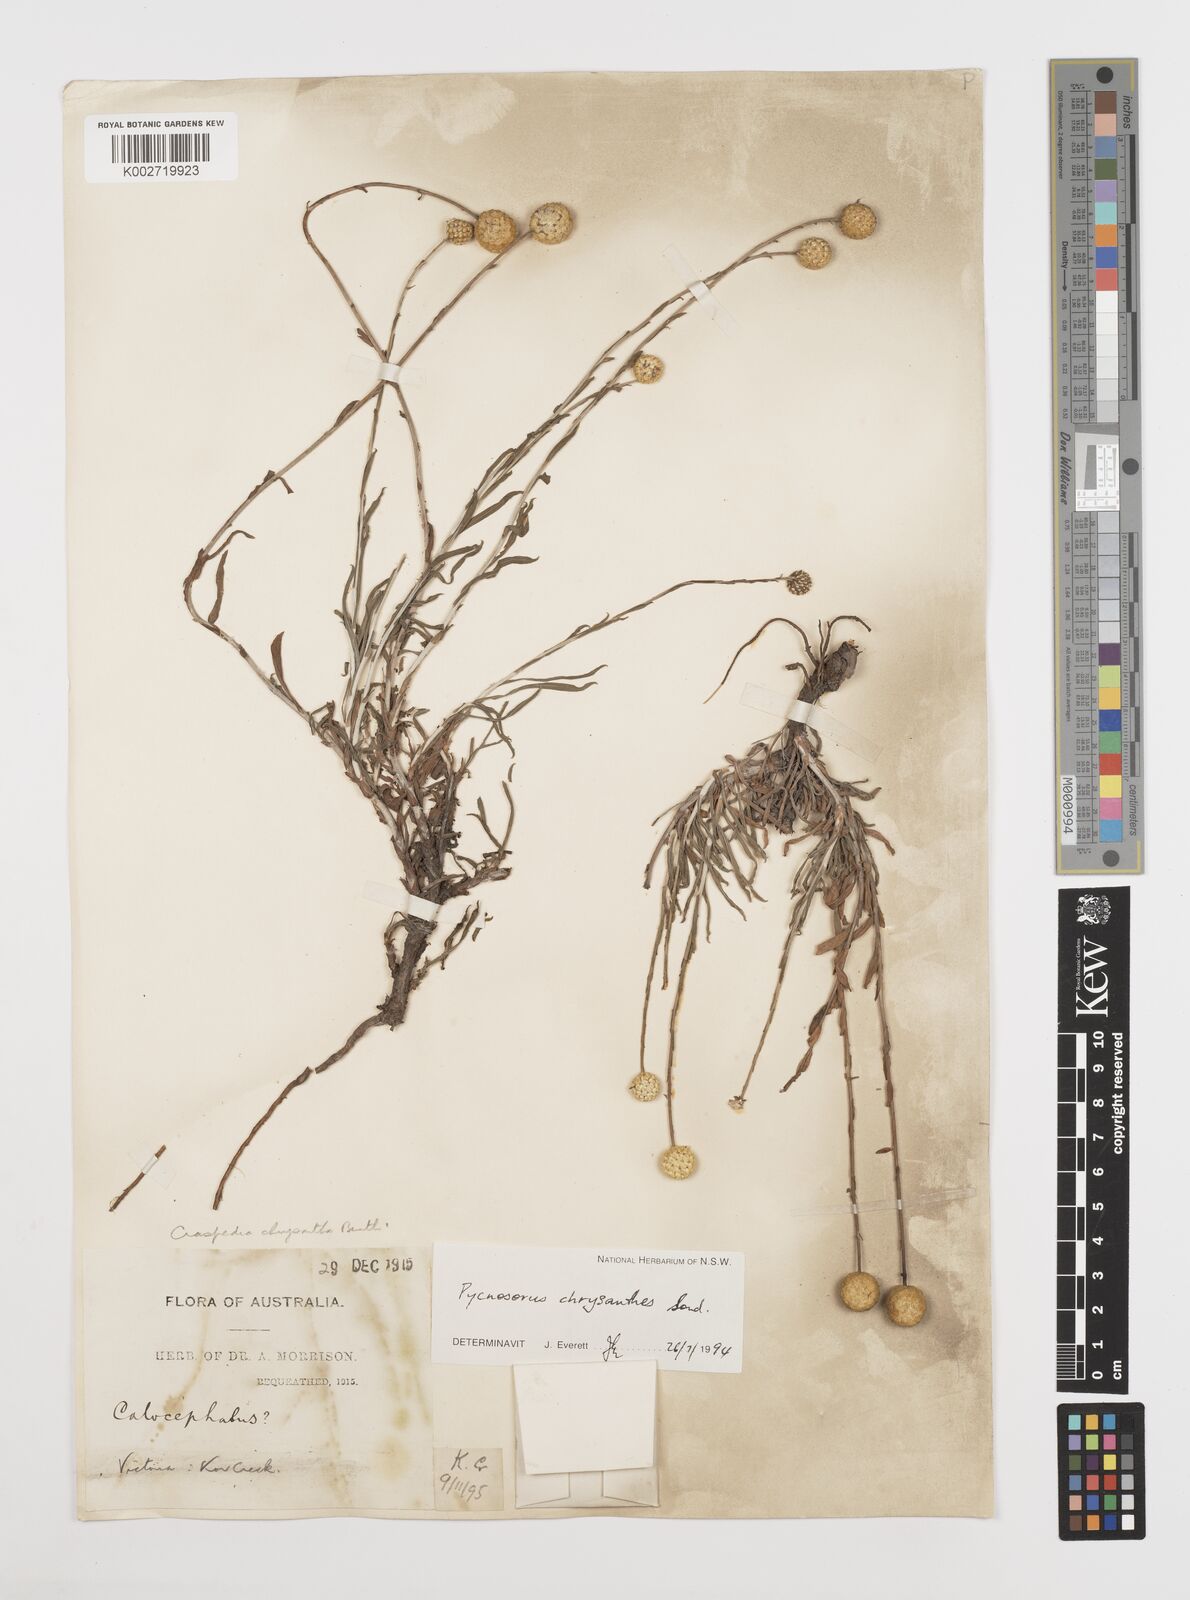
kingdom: Plantae
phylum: Tracheophyta
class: Magnoliopsida
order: Asterales
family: Asteraceae
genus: Pycnosorus
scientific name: Pycnosorus chrysanthus
